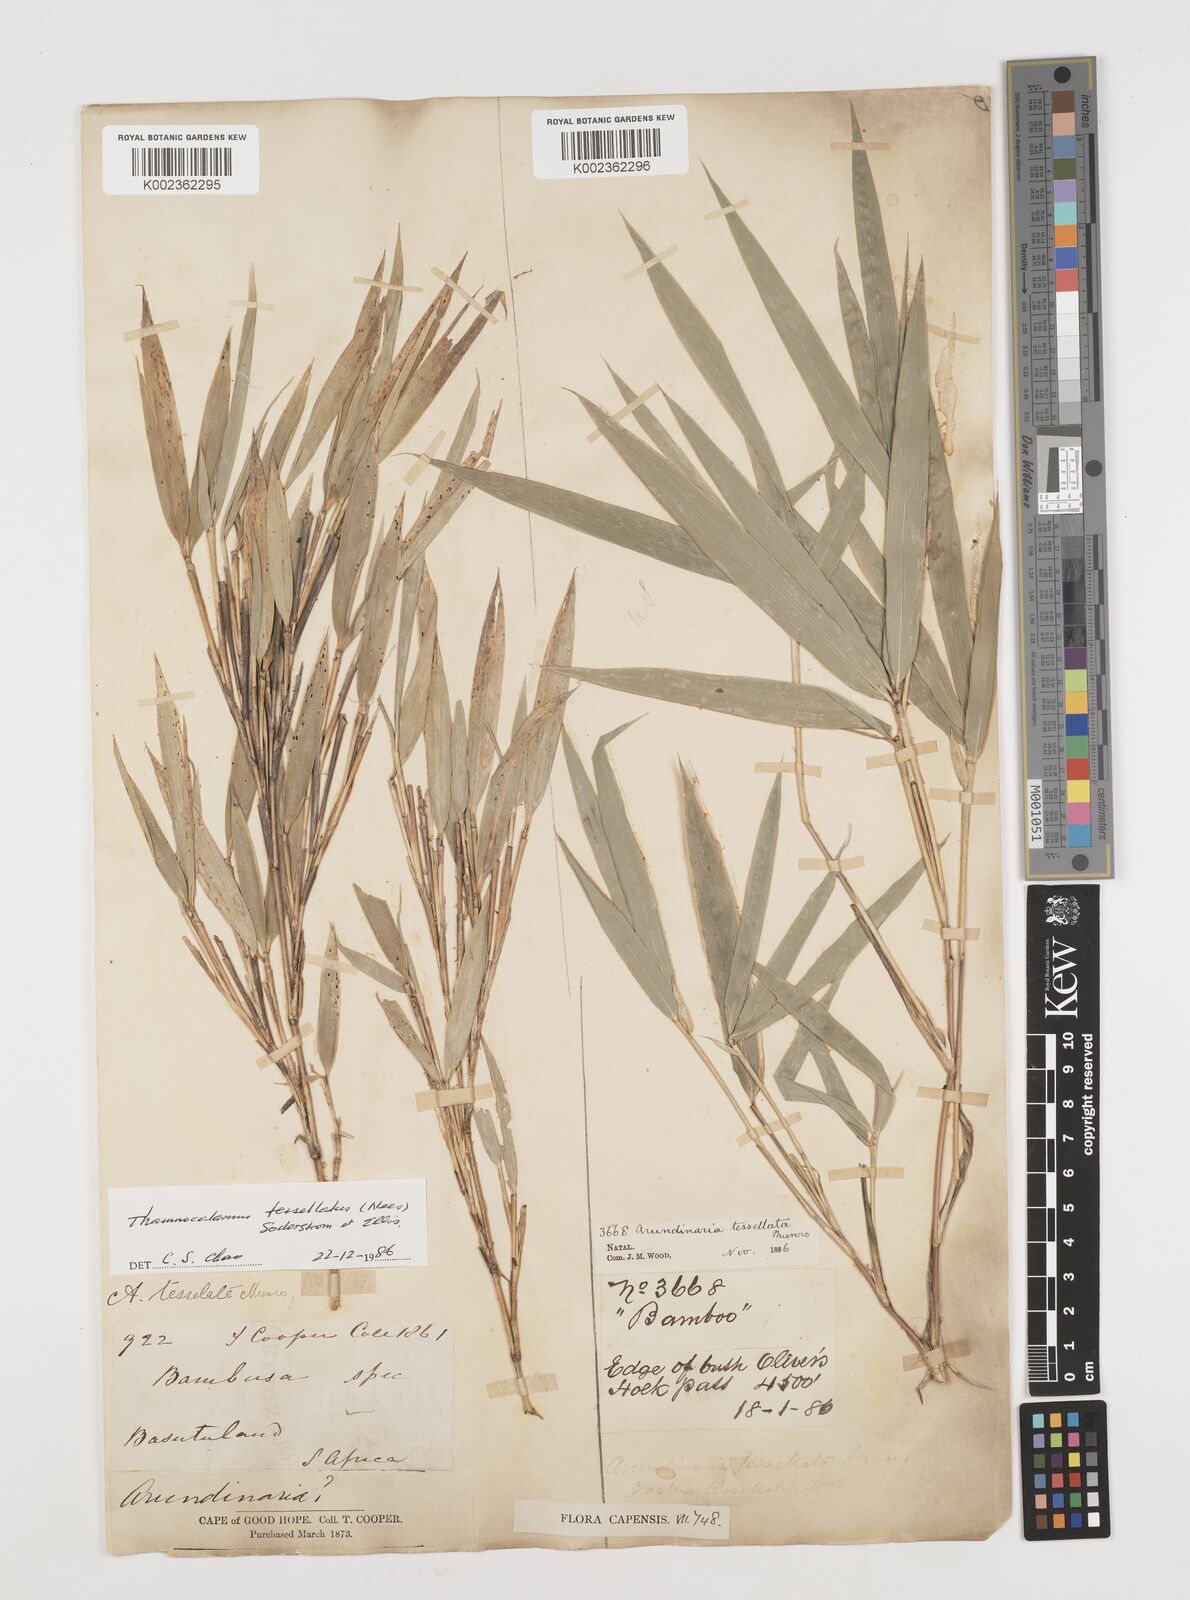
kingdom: Plantae
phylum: Tracheophyta
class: Liliopsida
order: Poales
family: Poaceae
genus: Bergbambos
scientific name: Bergbambos tessellata
